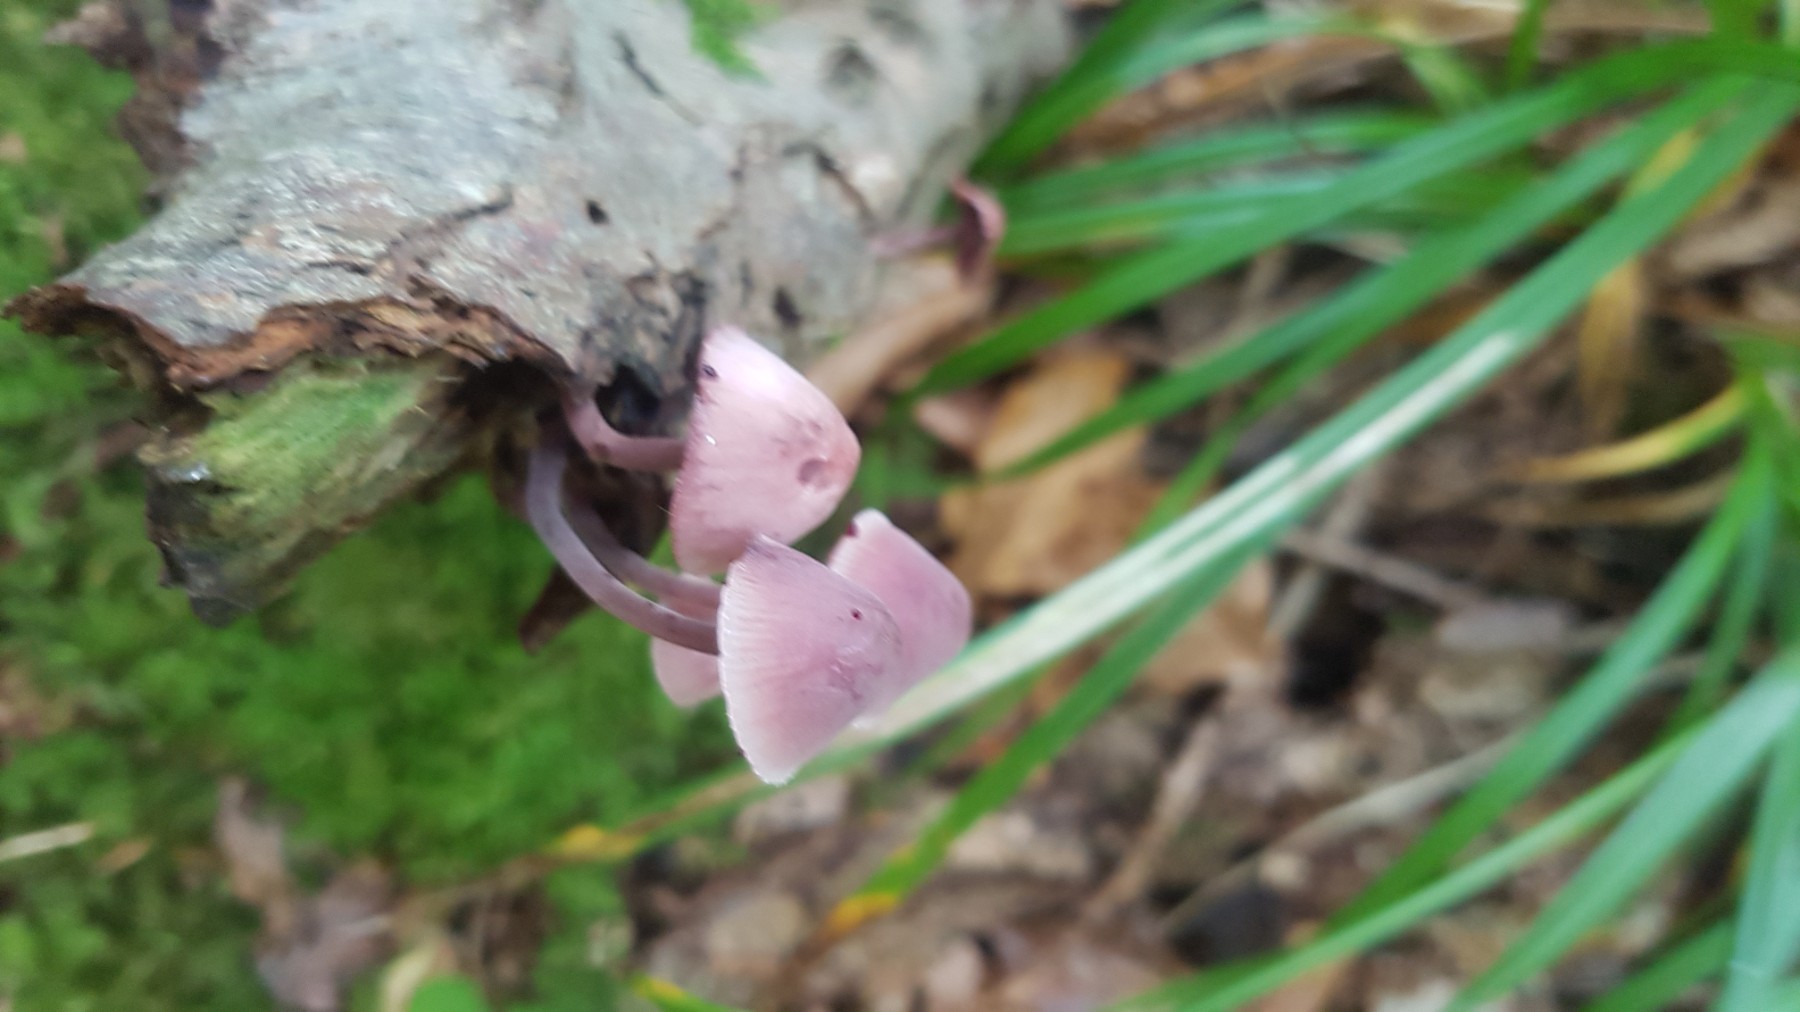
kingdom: Fungi
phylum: Basidiomycota
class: Agaricomycetes
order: Agaricales
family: Mycenaceae
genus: Mycena
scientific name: Mycena haematopus
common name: blødende huesvamp
